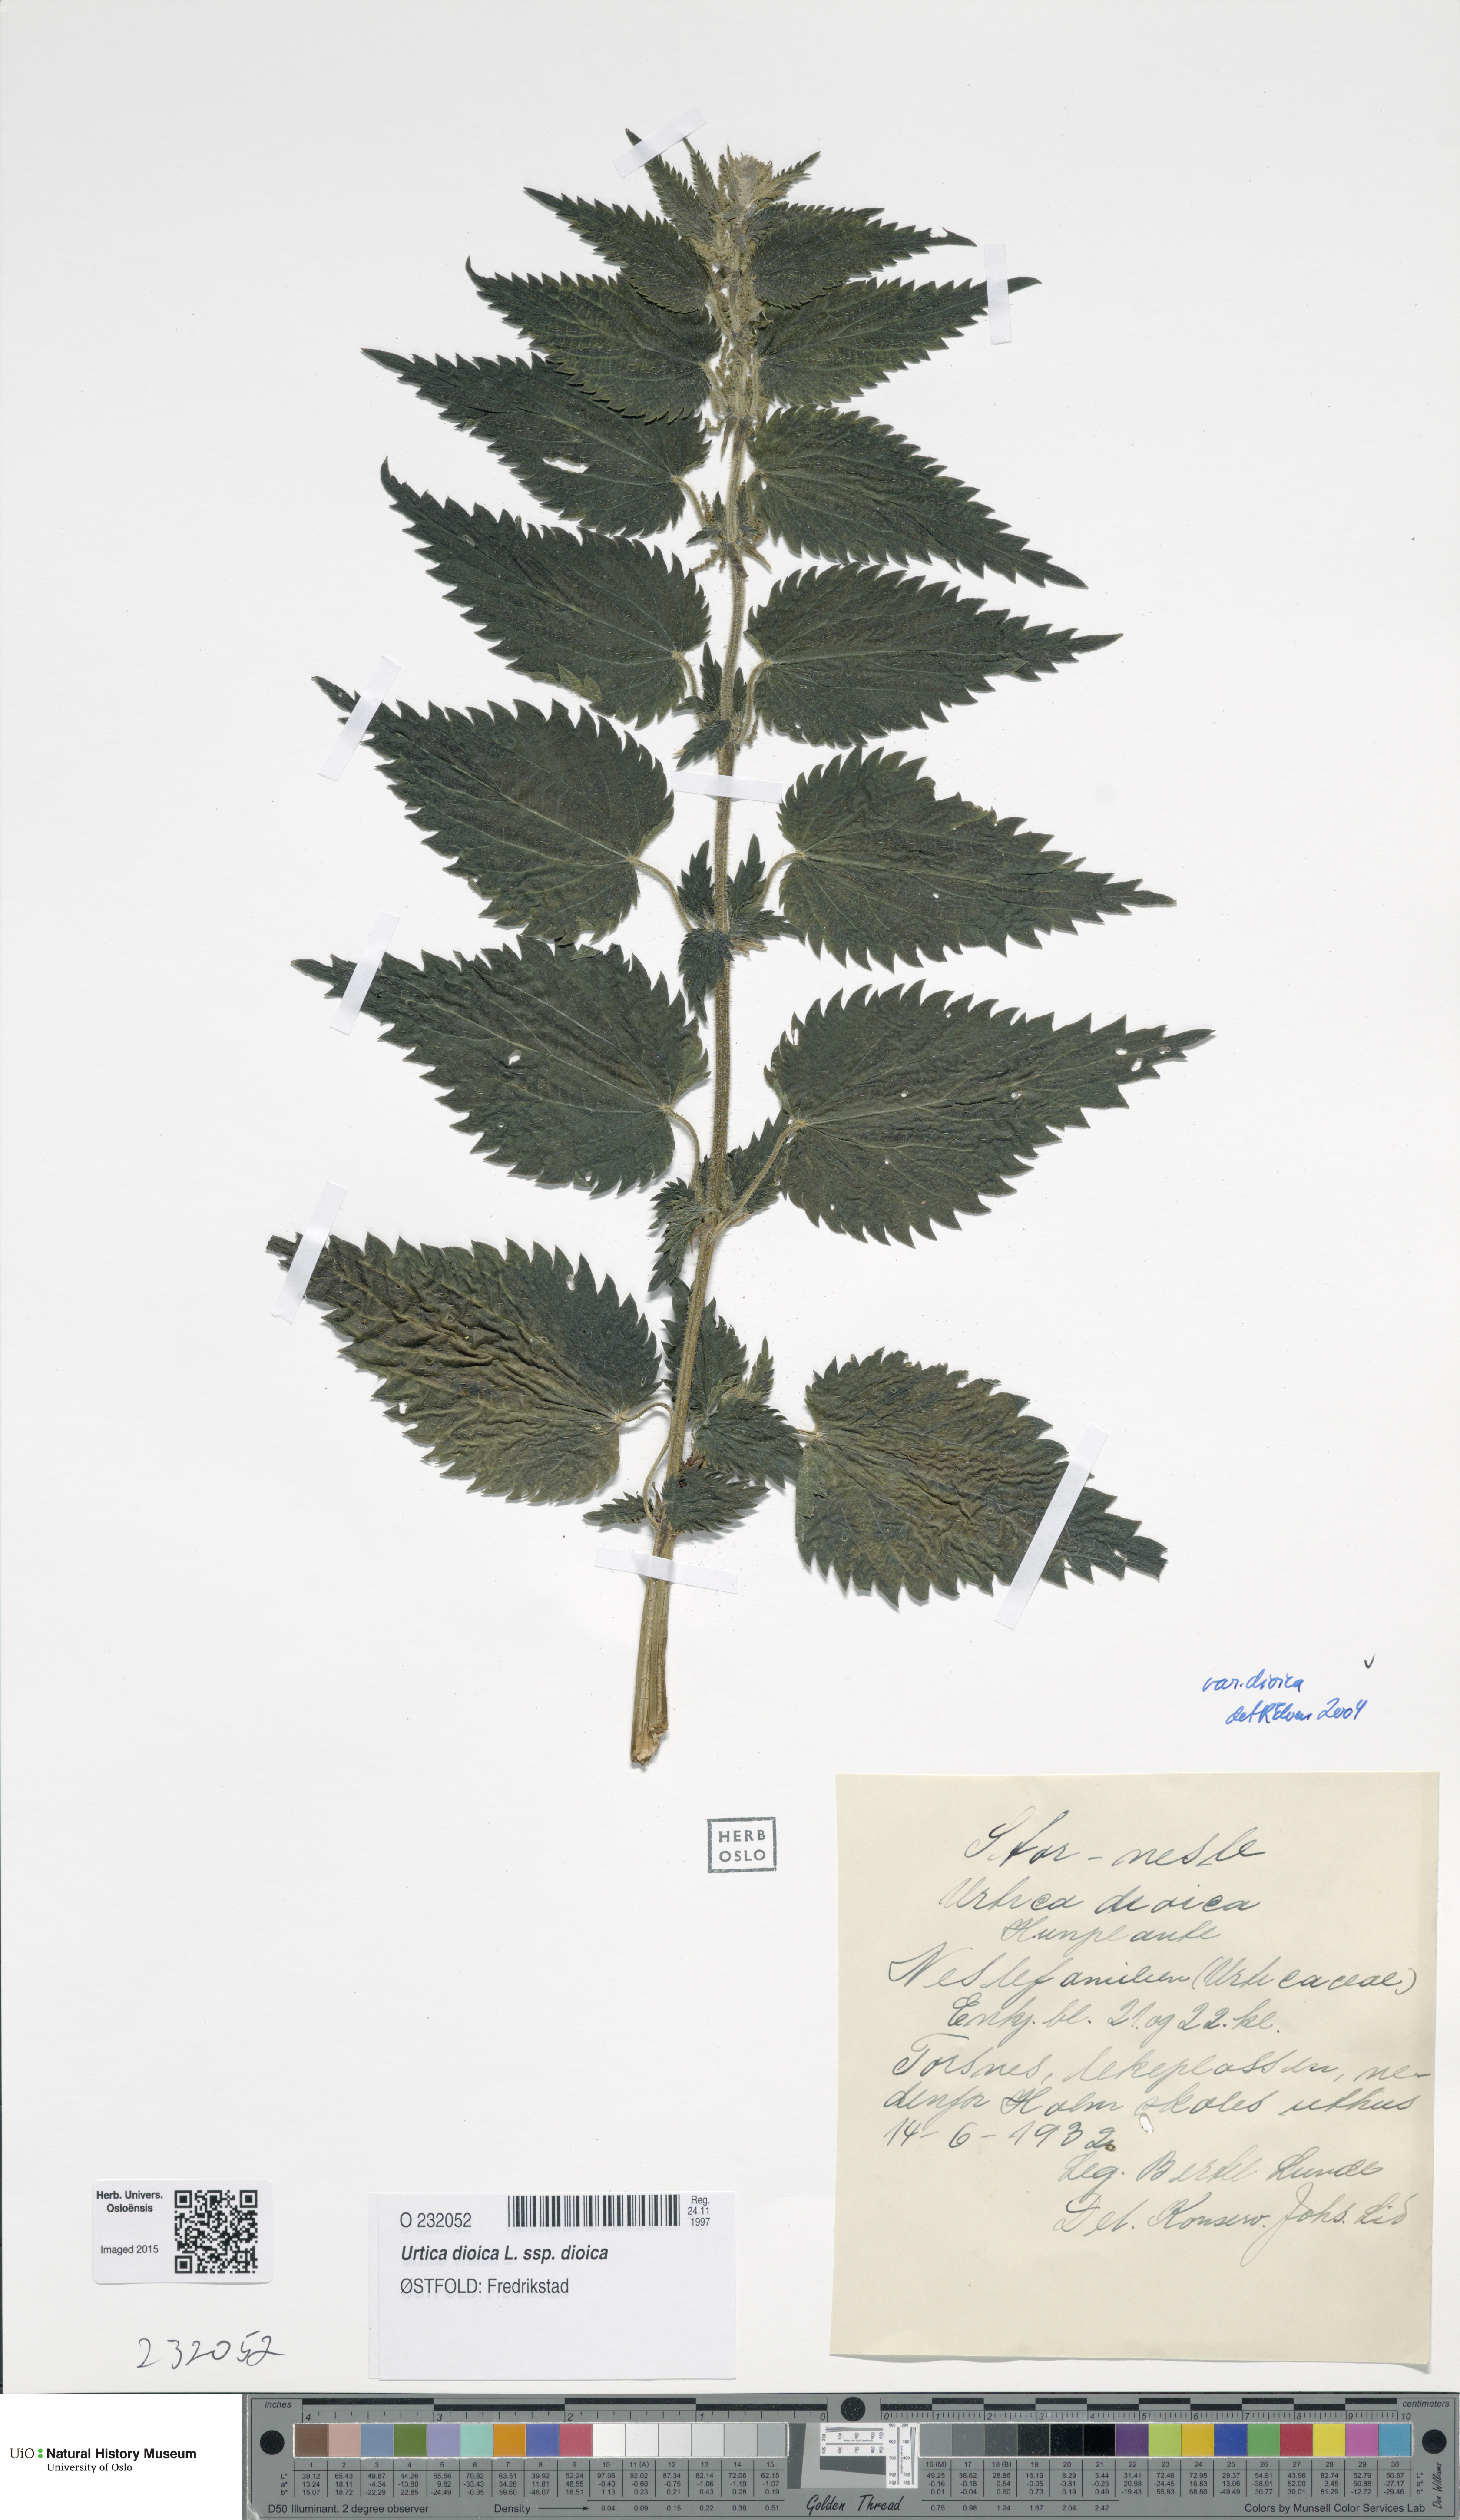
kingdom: Plantae
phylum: Tracheophyta
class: Magnoliopsida
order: Rosales
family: Urticaceae
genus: Urtica
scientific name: Urtica dioica
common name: Common nettle
